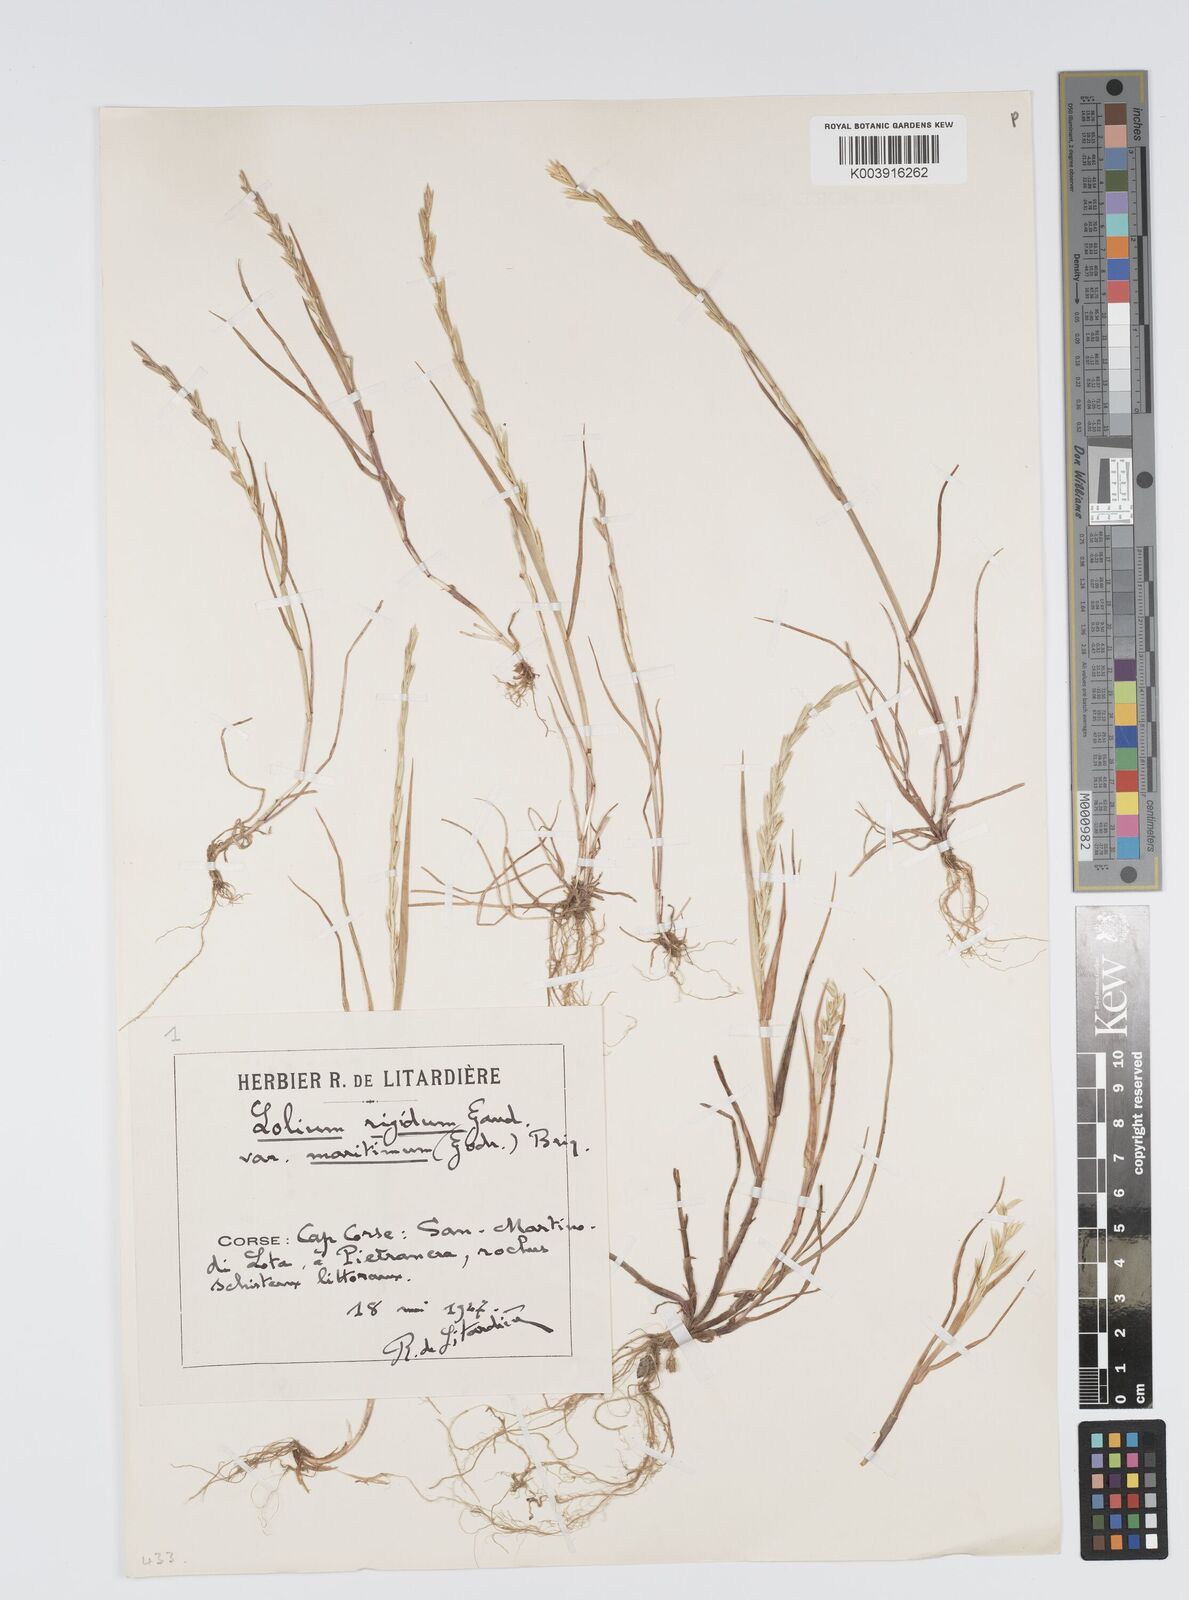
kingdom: Plantae
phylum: Tracheophyta
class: Liliopsida
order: Poales
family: Poaceae
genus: Lolium
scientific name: Lolium rigidum
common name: Wimmera ryegrass
